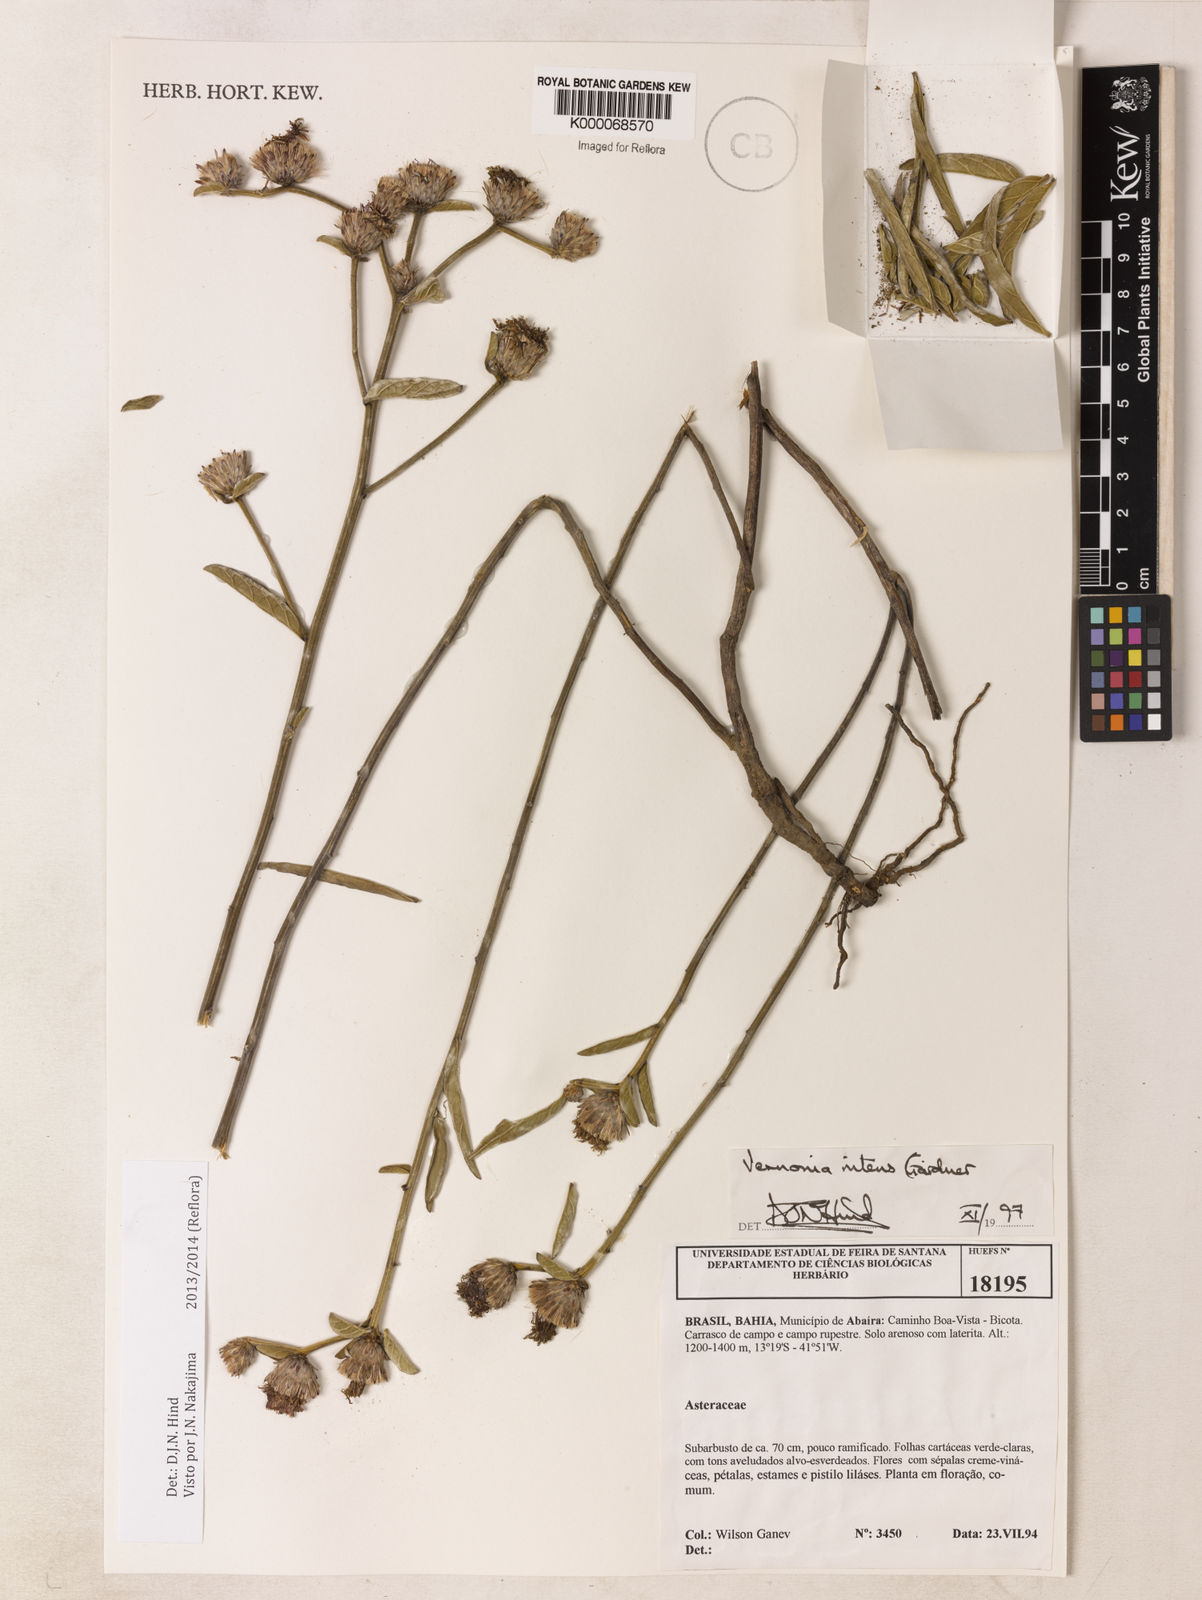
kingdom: Plantae
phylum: Tracheophyta
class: Magnoliopsida
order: Asterales
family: Asteraceae
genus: Lepidaploa
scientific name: Lepidaploa nitens
